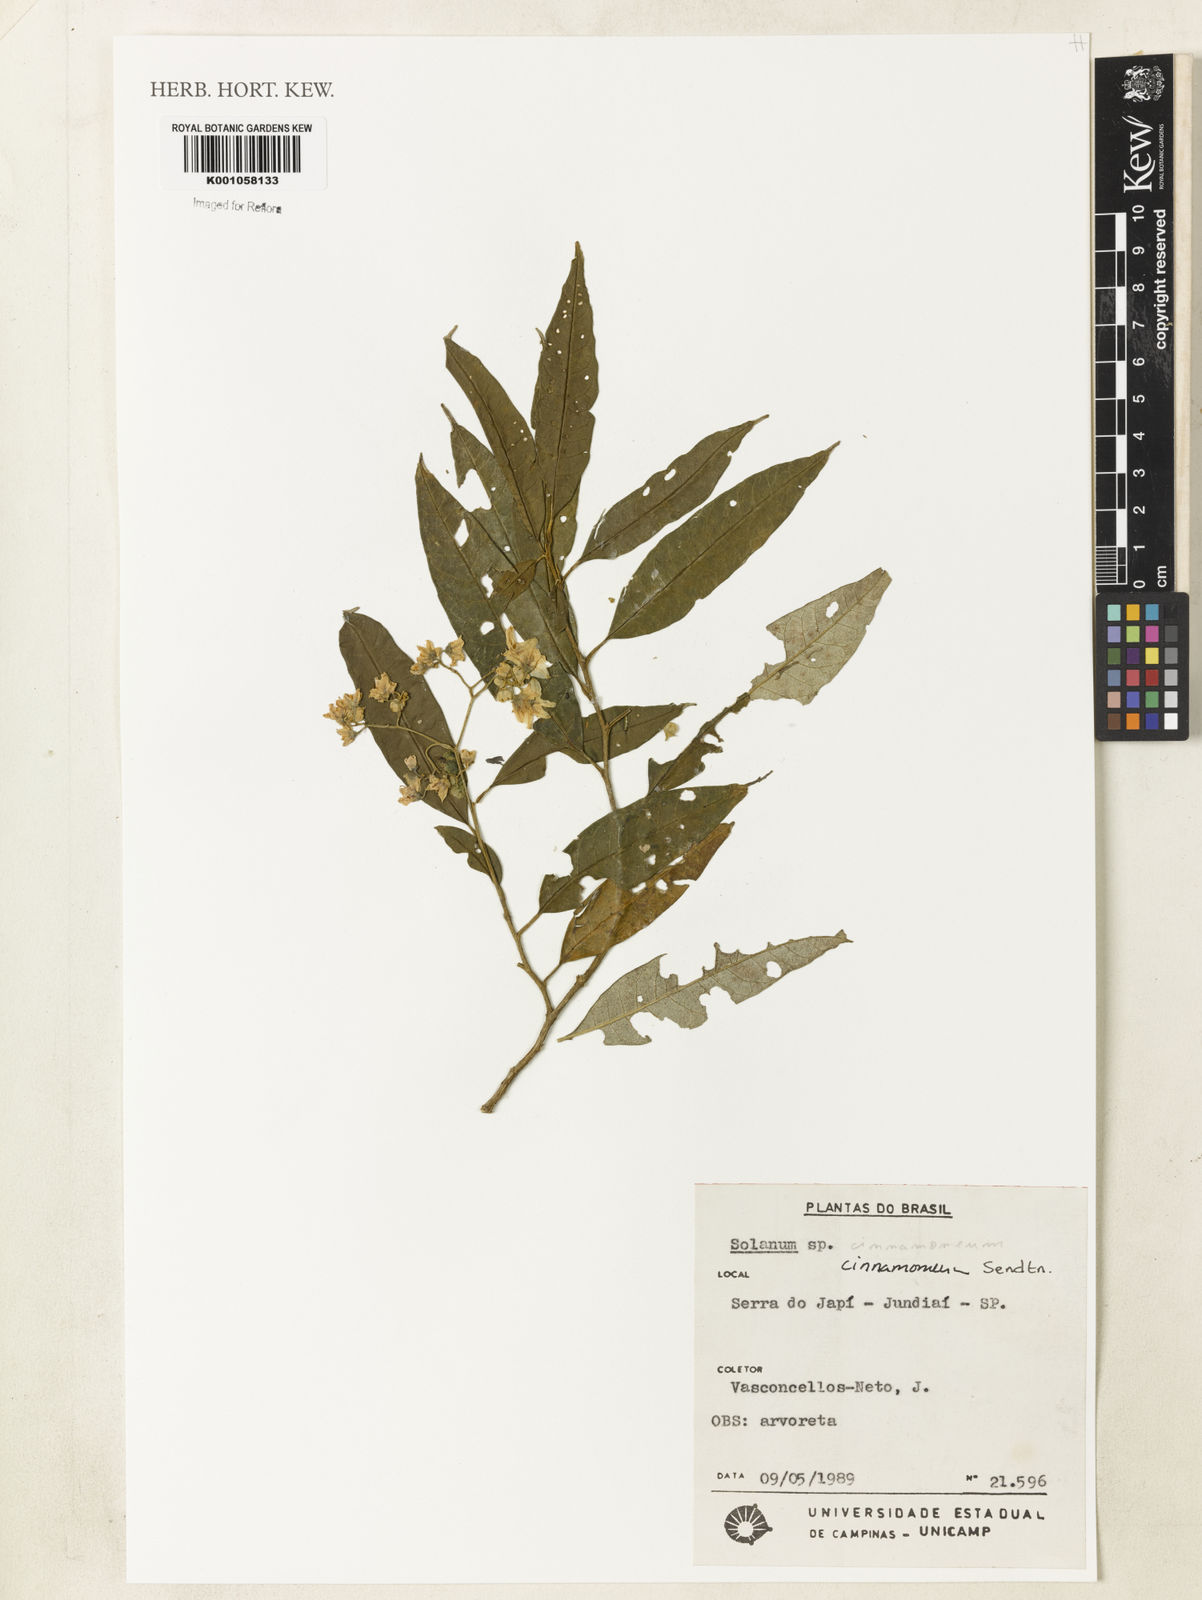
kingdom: Plantae
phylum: Tracheophyta
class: Magnoliopsida
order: Solanales
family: Solanaceae
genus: Solanum
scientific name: Solanum cinnamomeum
